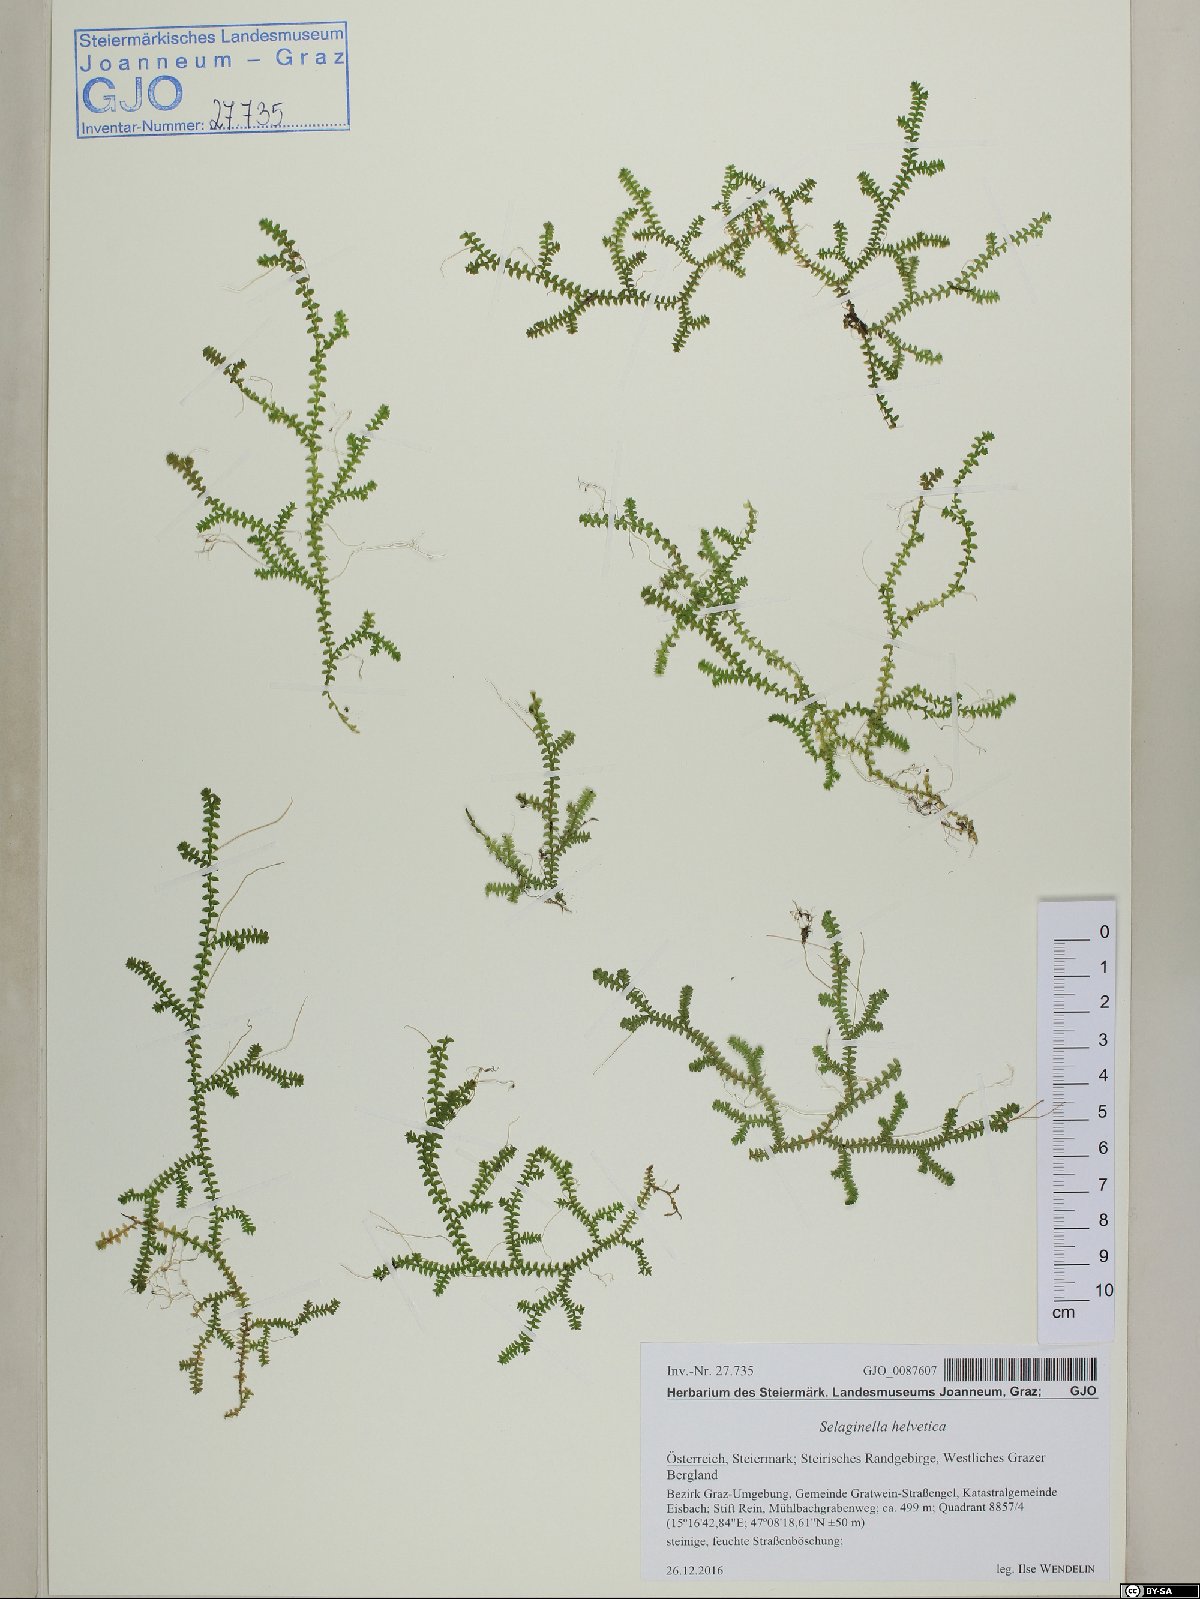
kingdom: Plantae
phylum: Tracheophyta
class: Lycopodiopsida
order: Selaginellales
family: Selaginellaceae
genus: Selaginella
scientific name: Selaginella helvetica
